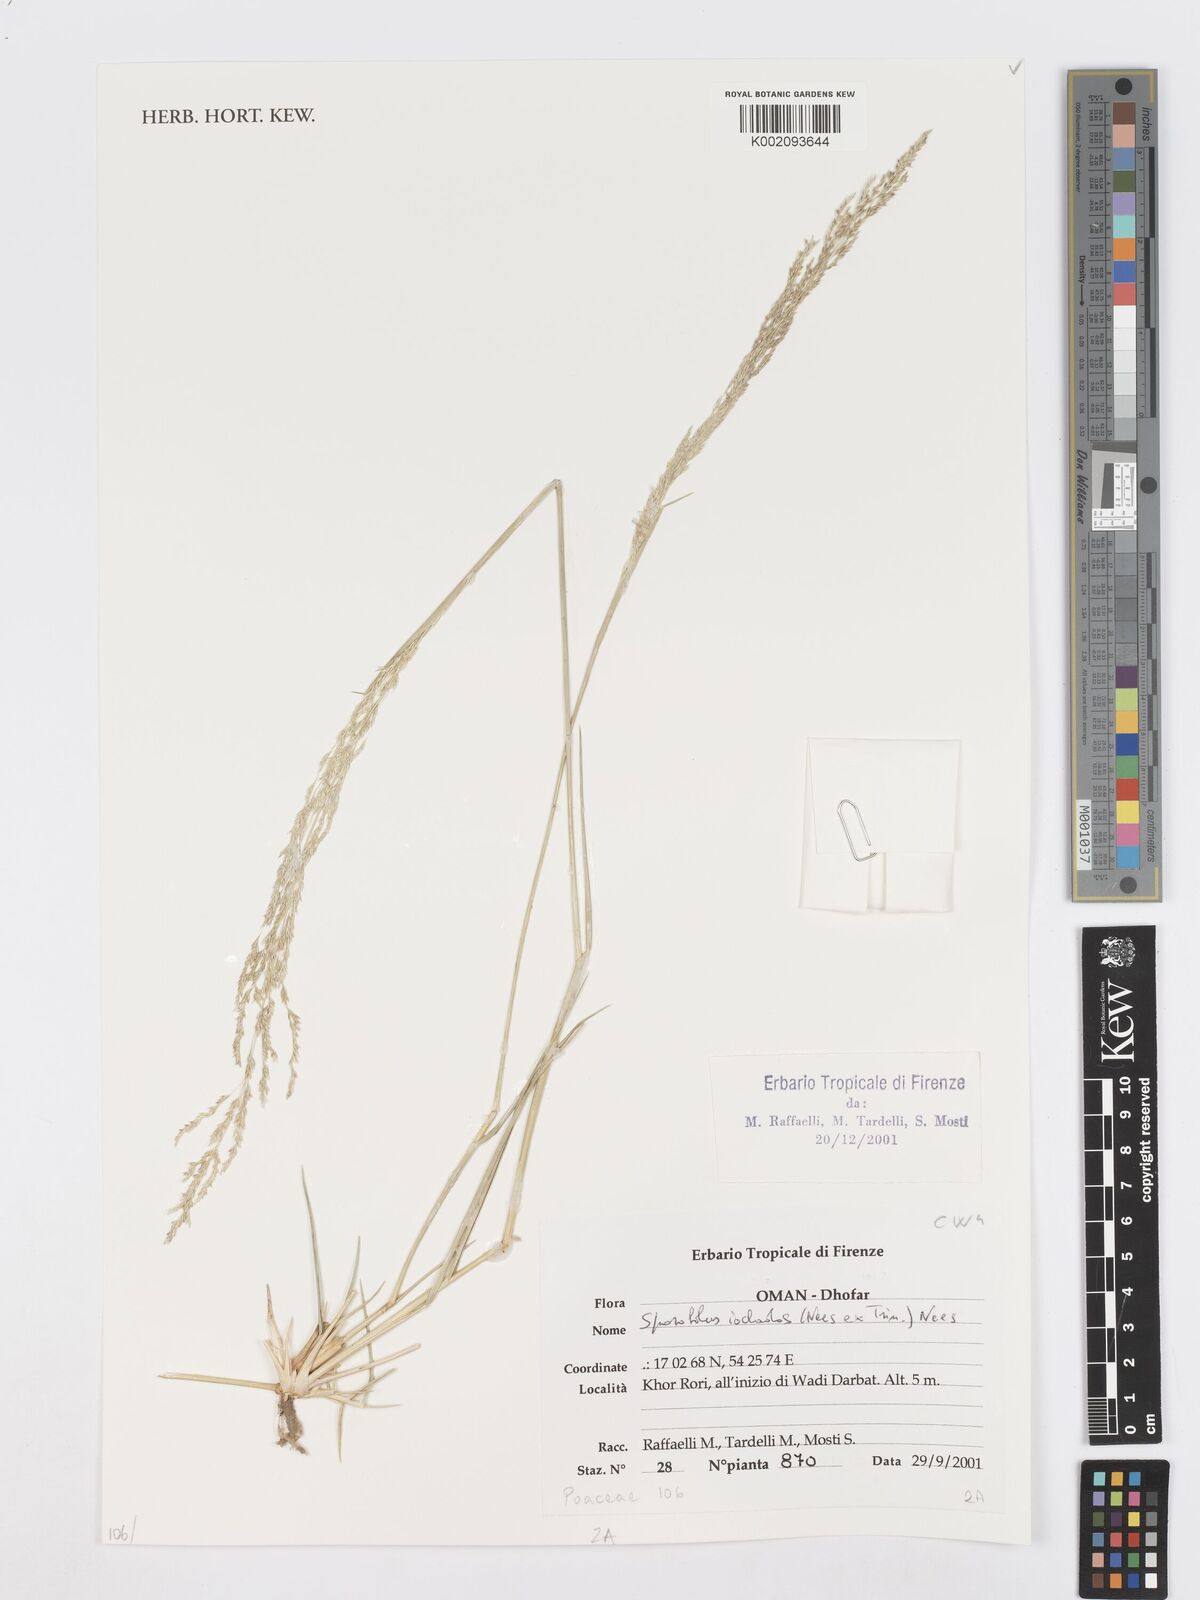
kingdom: Plantae
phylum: Tracheophyta
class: Liliopsida
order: Poales
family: Poaceae
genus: Sporobolus
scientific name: Sporobolus ioclados
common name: Pan dropseed
